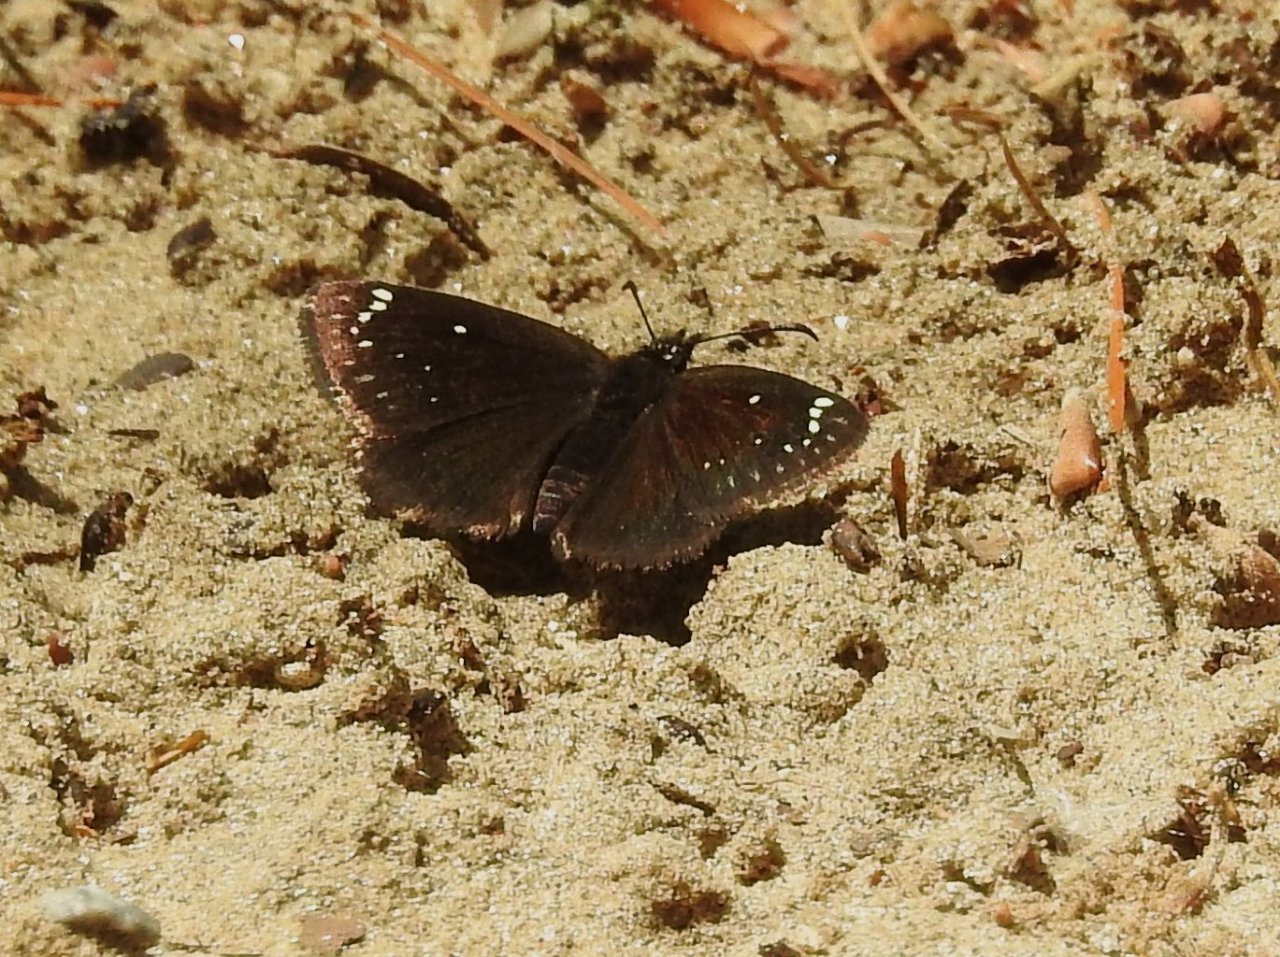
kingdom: Animalia
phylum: Arthropoda
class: Insecta
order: Lepidoptera
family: Hesperiidae
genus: Pholisora
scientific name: Pholisora catullus
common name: Common Sootywing
